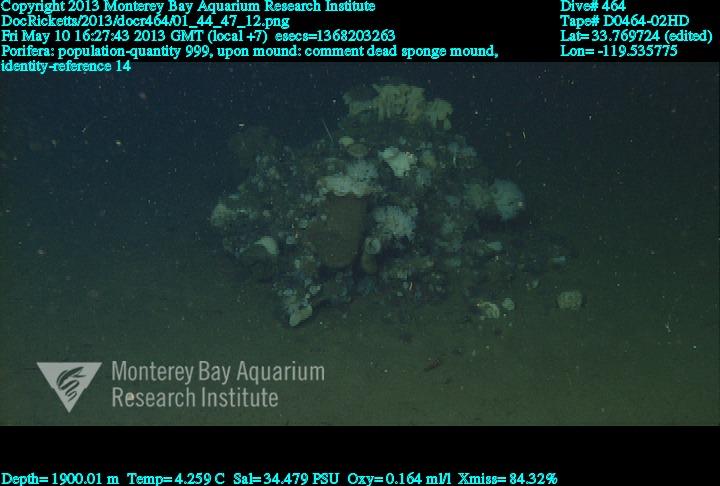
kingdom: Animalia
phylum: Porifera
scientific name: Porifera
